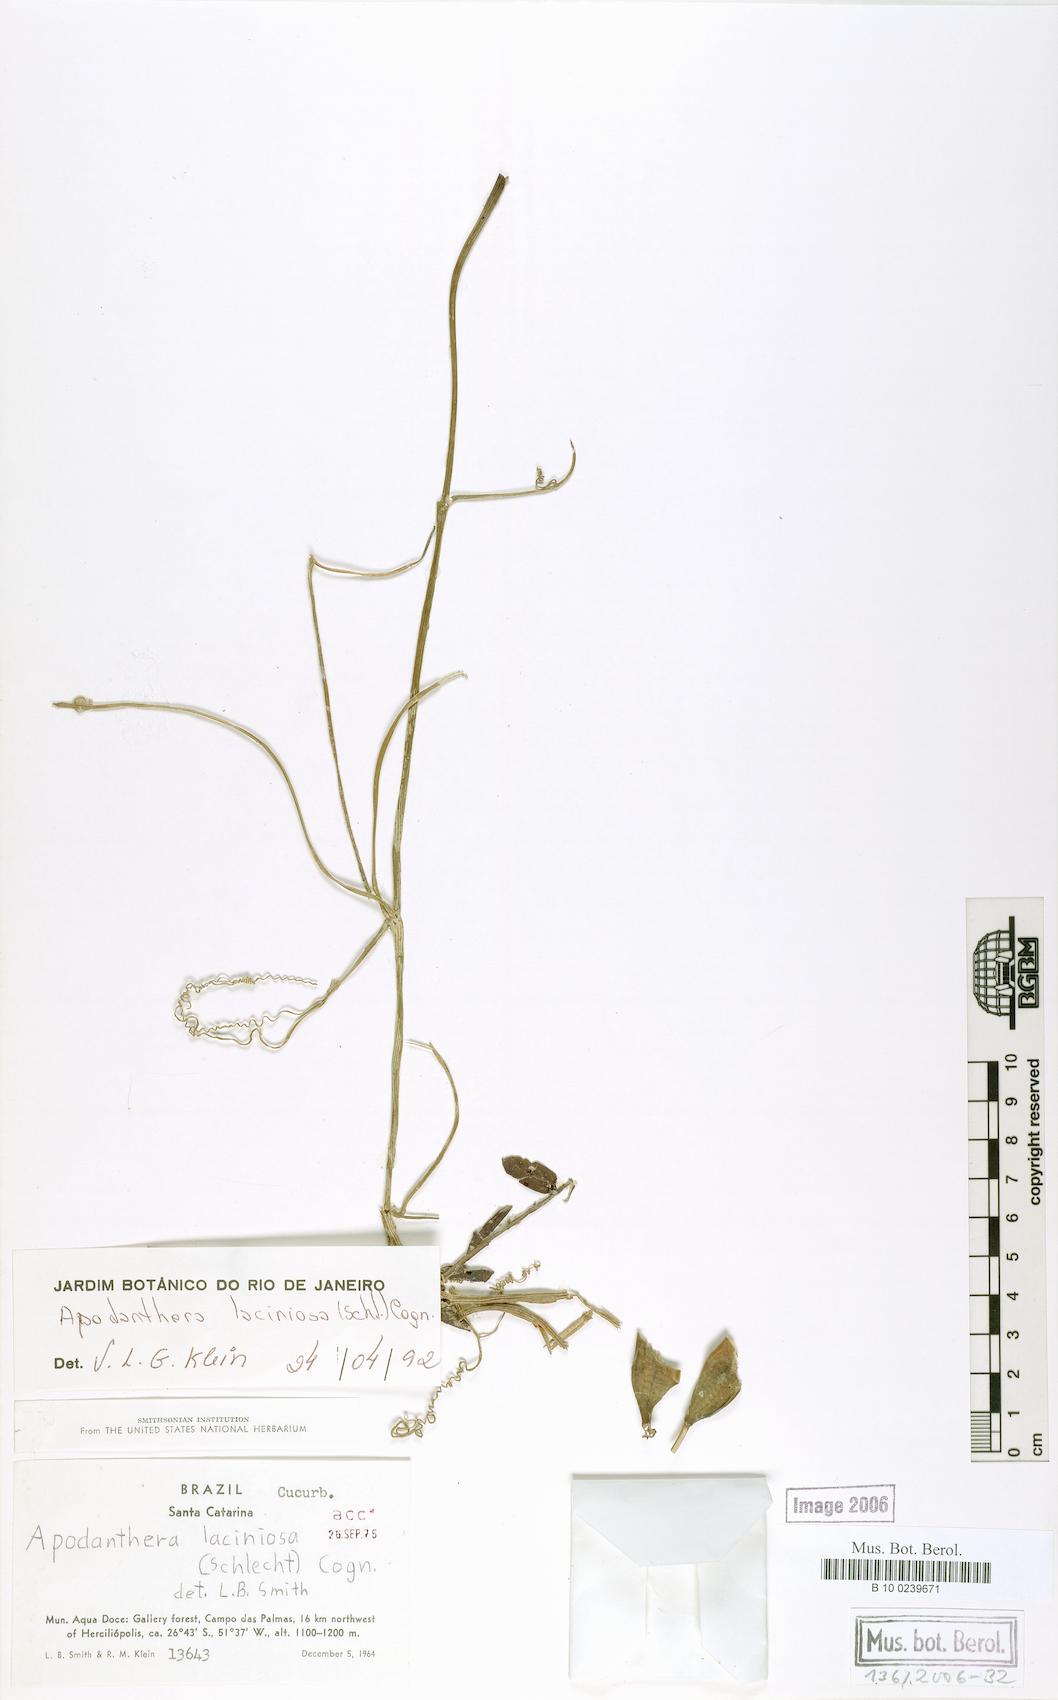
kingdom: Plantae
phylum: Tracheophyta
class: Magnoliopsida
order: Cucurbitales
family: Cucurbitaceae
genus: Apodanthera
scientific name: Apodanthera laciniosa
